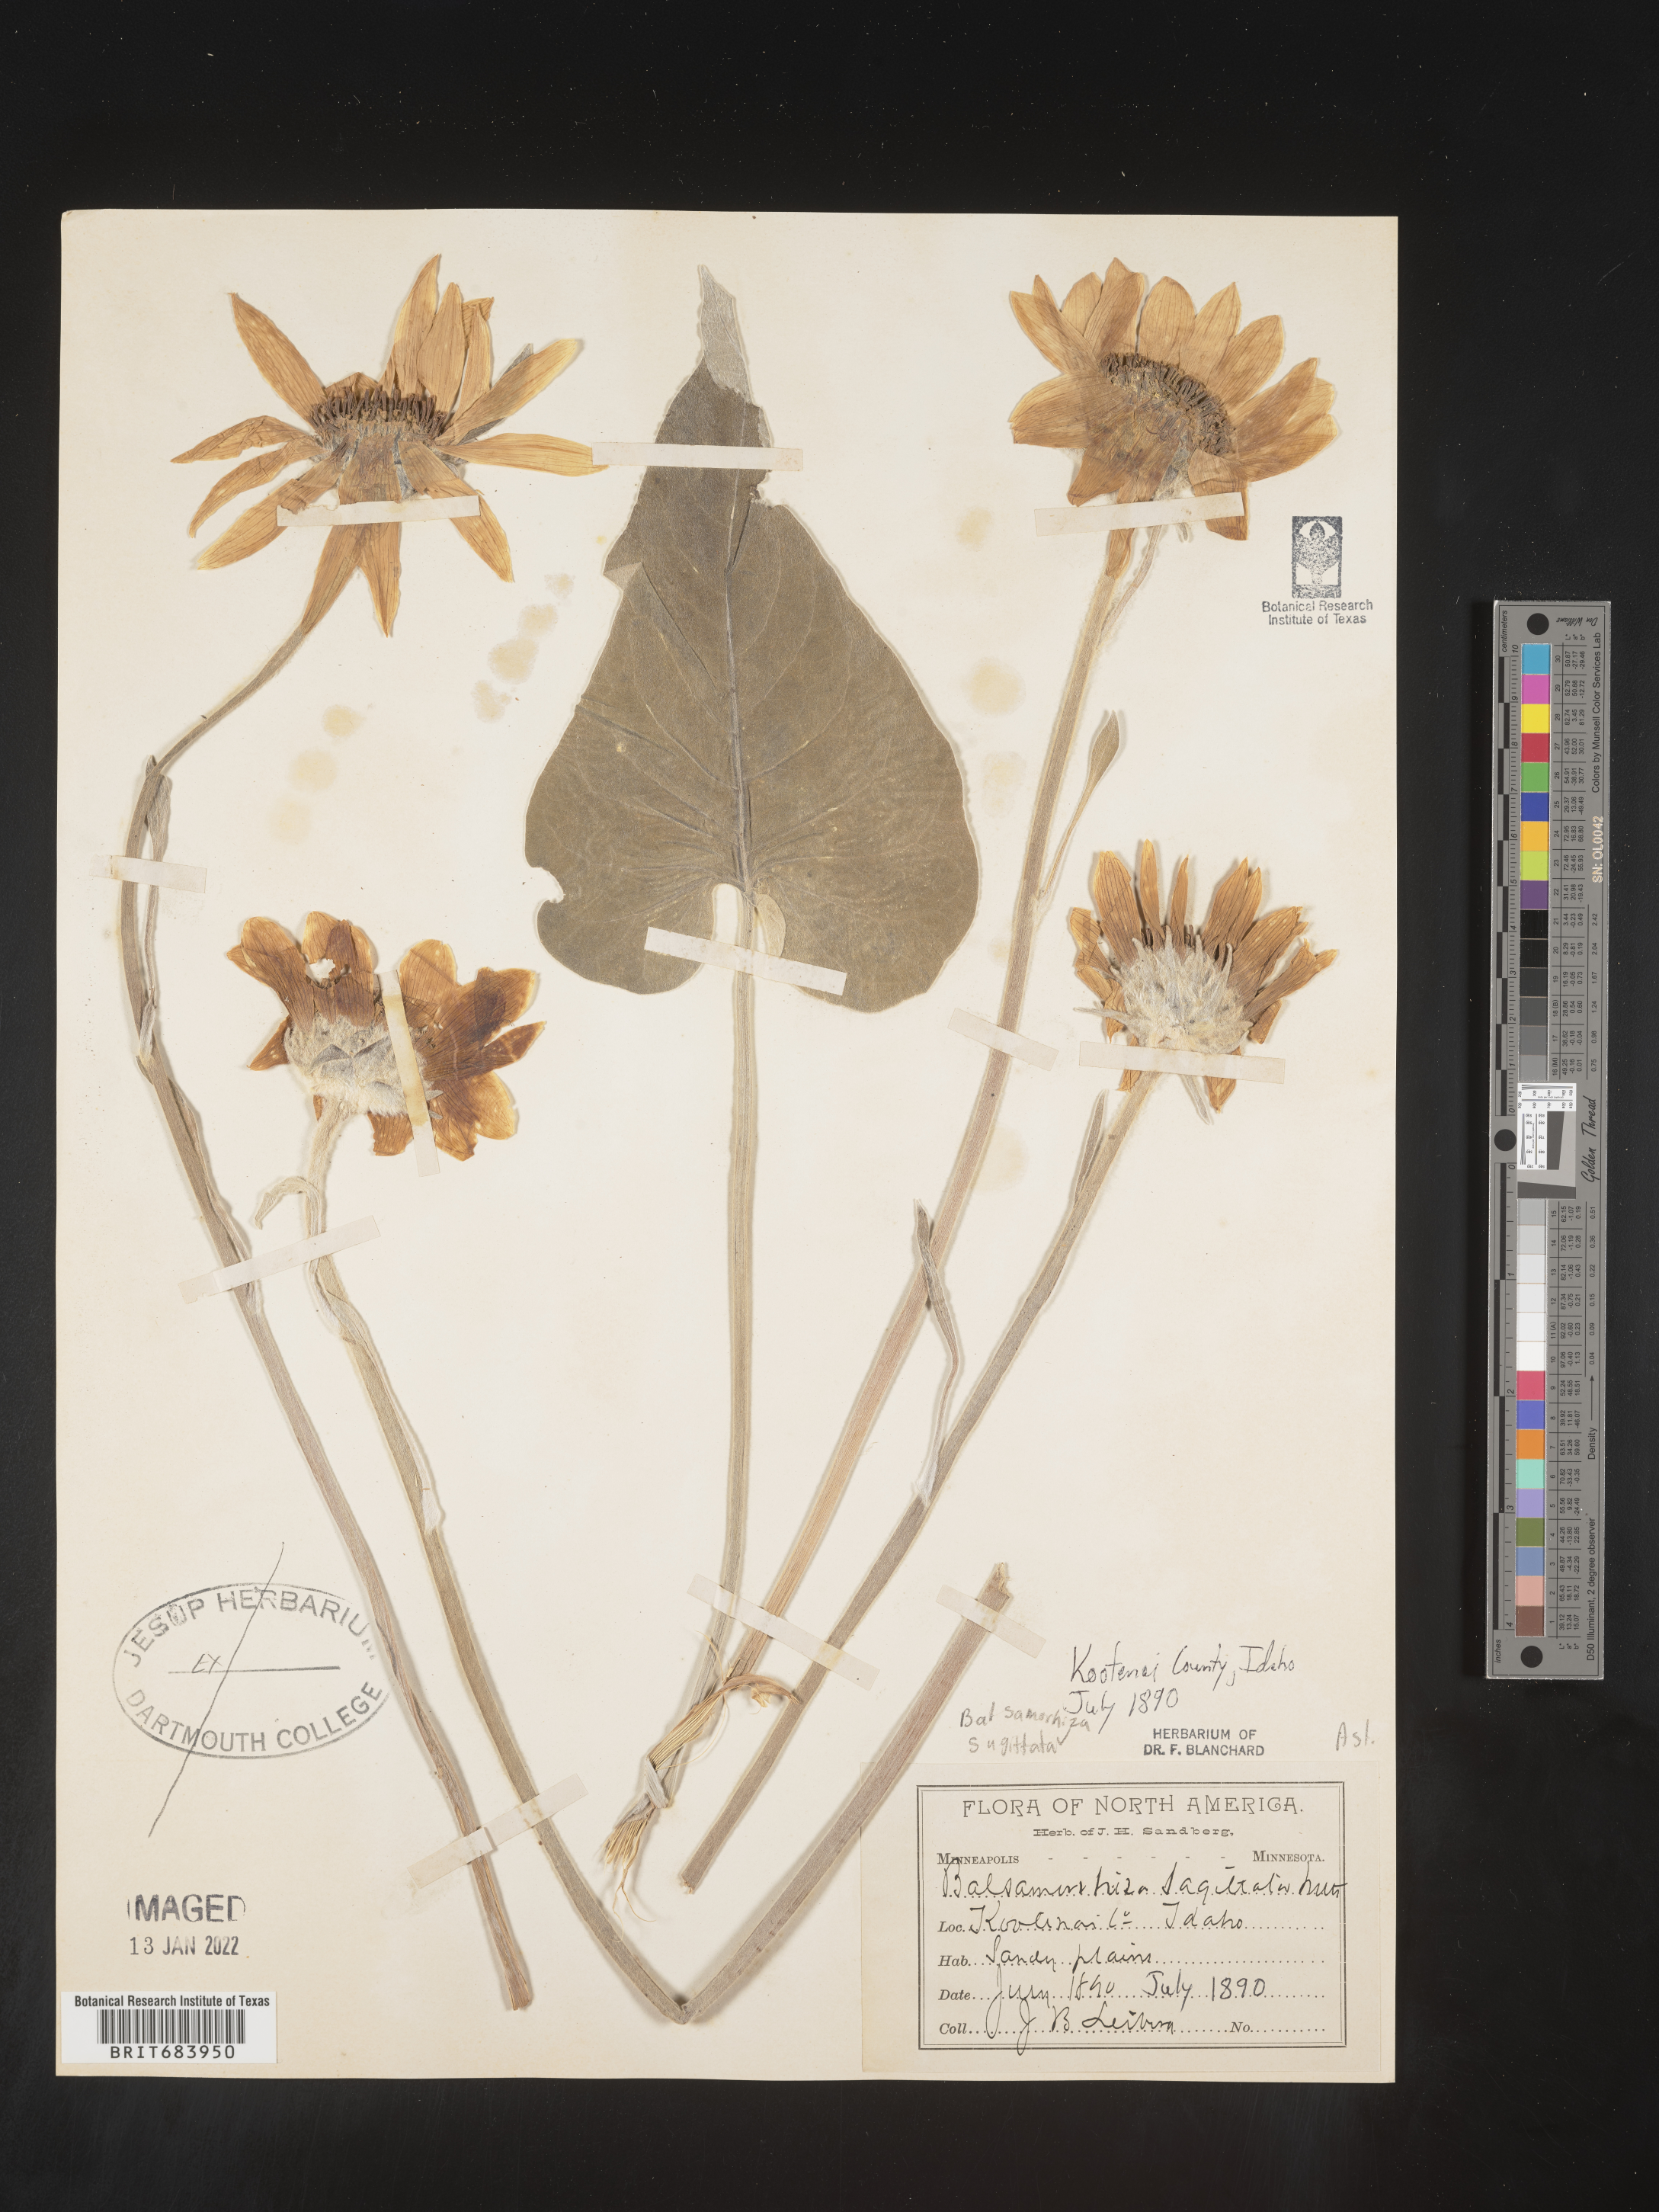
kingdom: Plantae
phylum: Tracheophyta
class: Magnoliopsida
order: Asterales
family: Asteraceae
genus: Wyethia
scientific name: Wyethia sagittata
